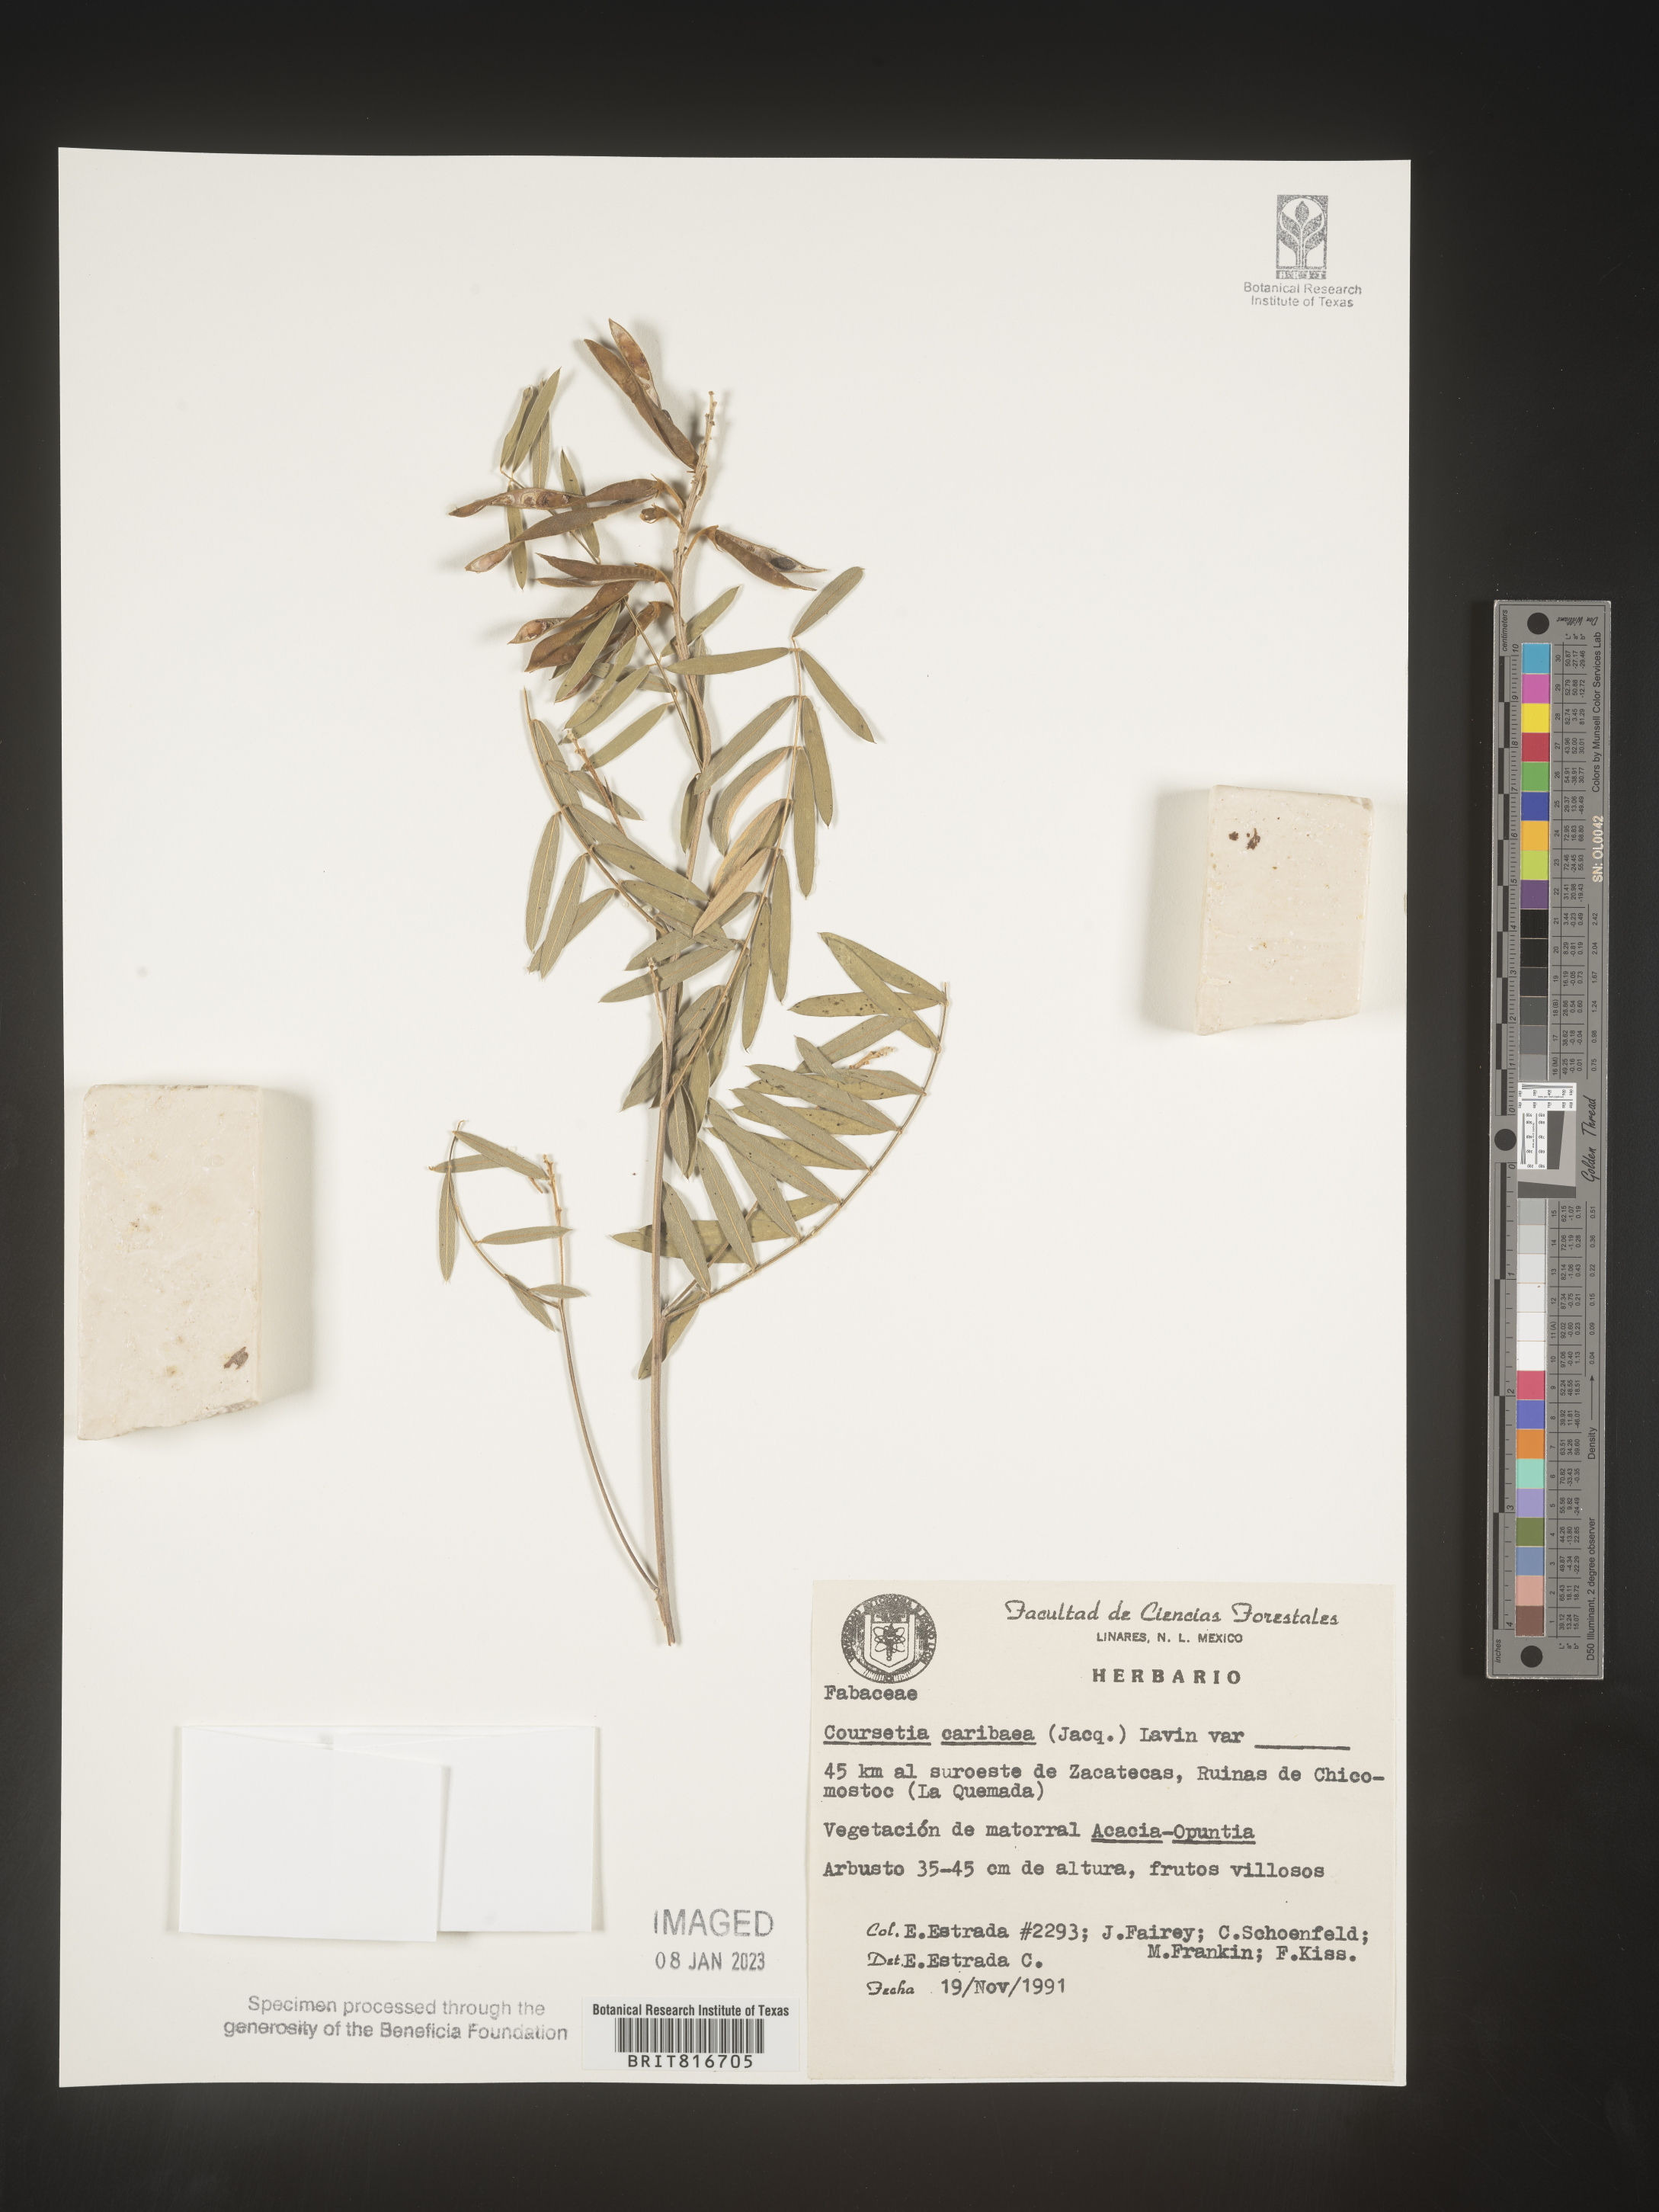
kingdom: Plantae
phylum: Tracheophyta
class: Magnoliopsida
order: Fabales
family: Fabaceae
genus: Coursetia
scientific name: Coursetia
